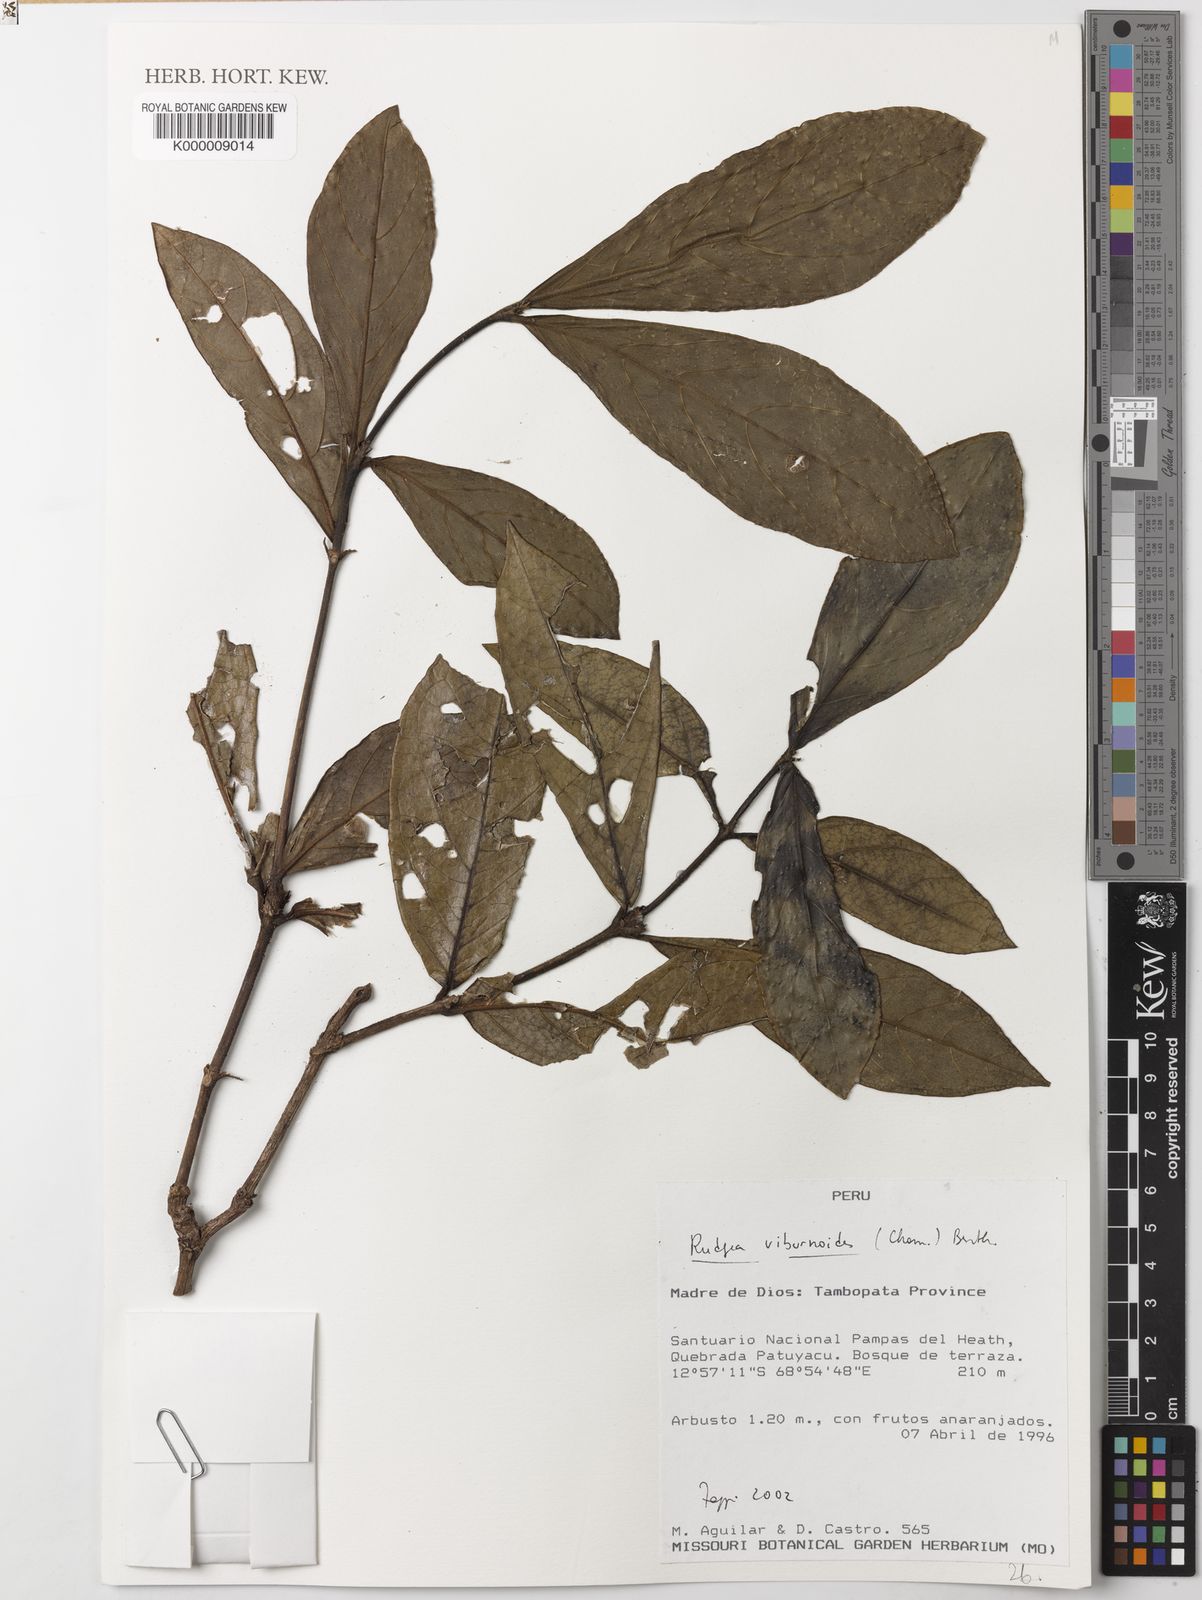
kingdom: Plantae
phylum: Tracheophyta
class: Magnoliopsida
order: Gentianales
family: Rubiaceae
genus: Rudgea
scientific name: Rudgea viburnifolia
